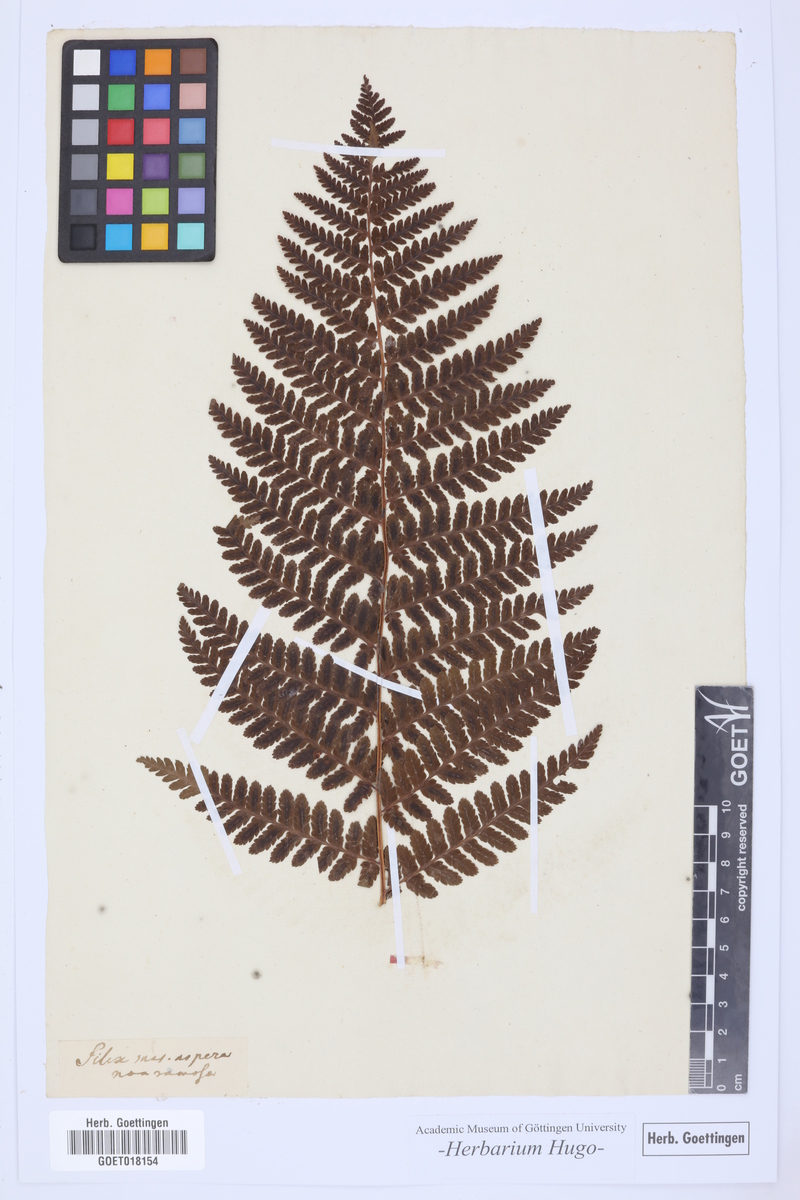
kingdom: Plantae
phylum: Tracheophyta
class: Polypodiopsida
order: Polypodiales
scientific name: Polypodiales
